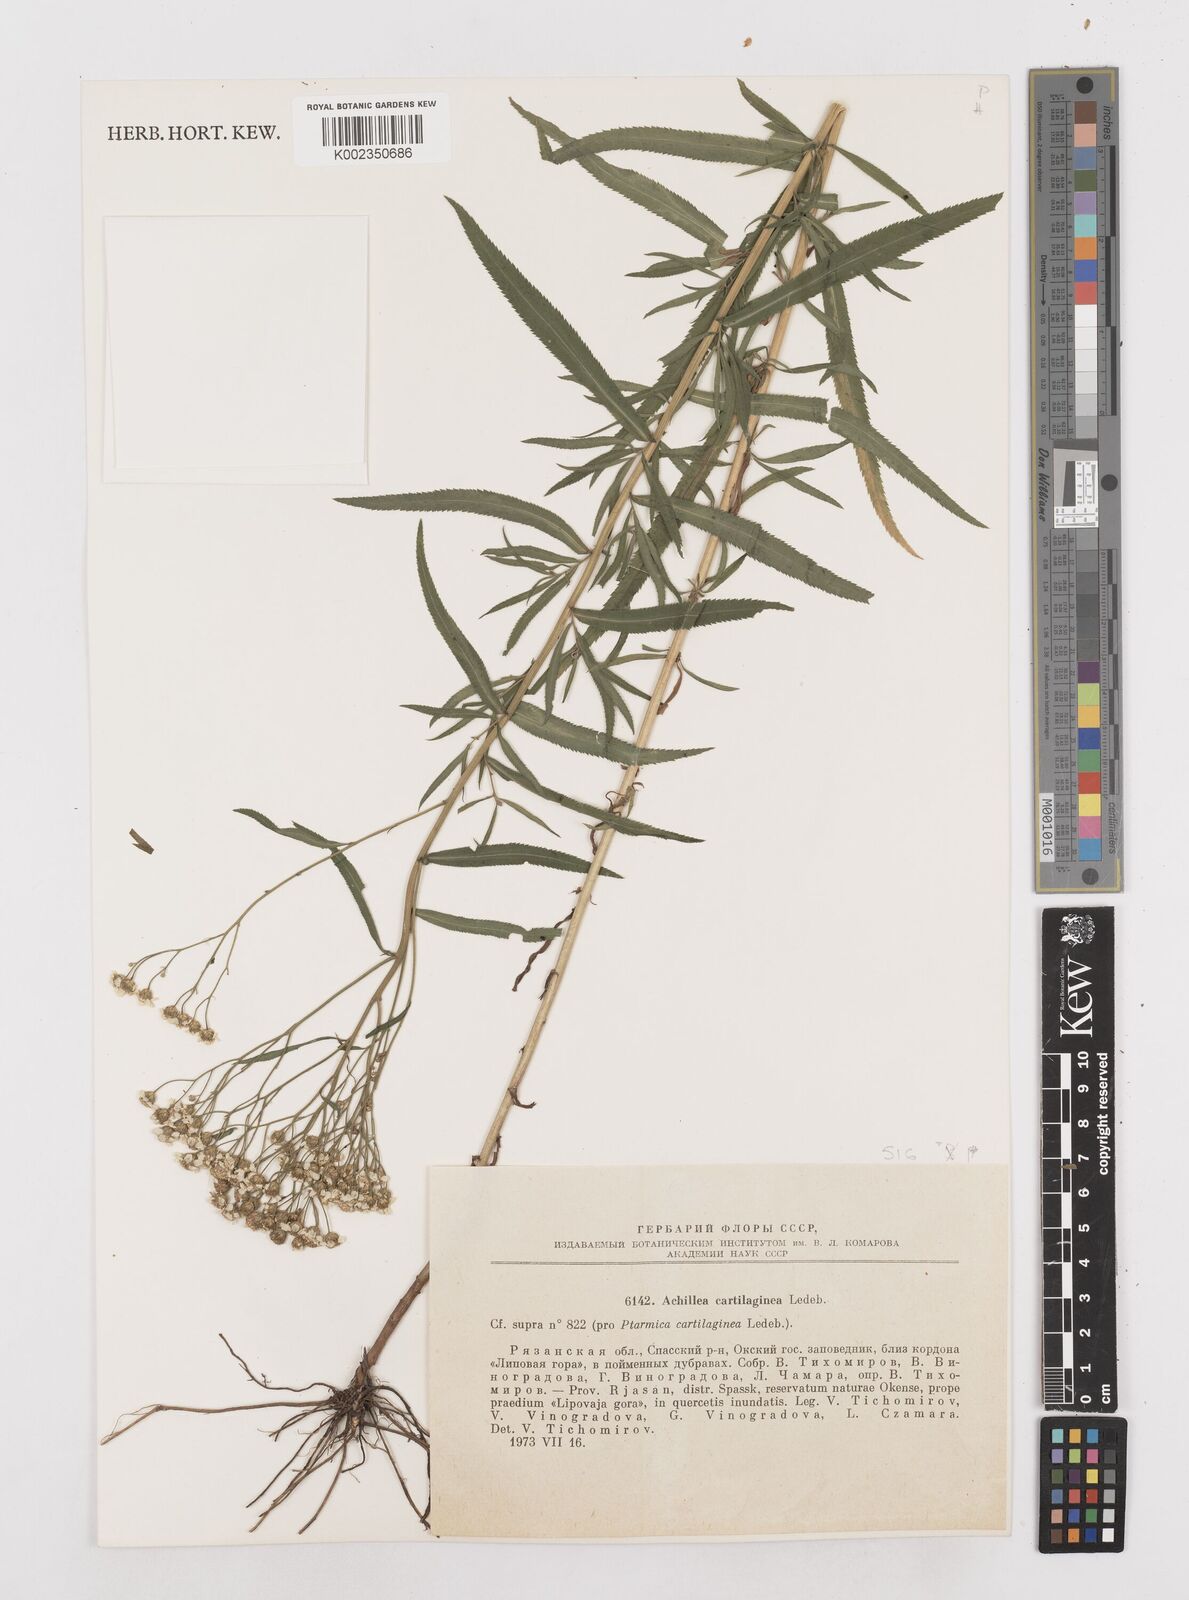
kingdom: Plantae
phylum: Tracheophyta
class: Magnoliopsida
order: Asterales
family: Asteraceae
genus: Achillea
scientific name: Achillea salicifolia
